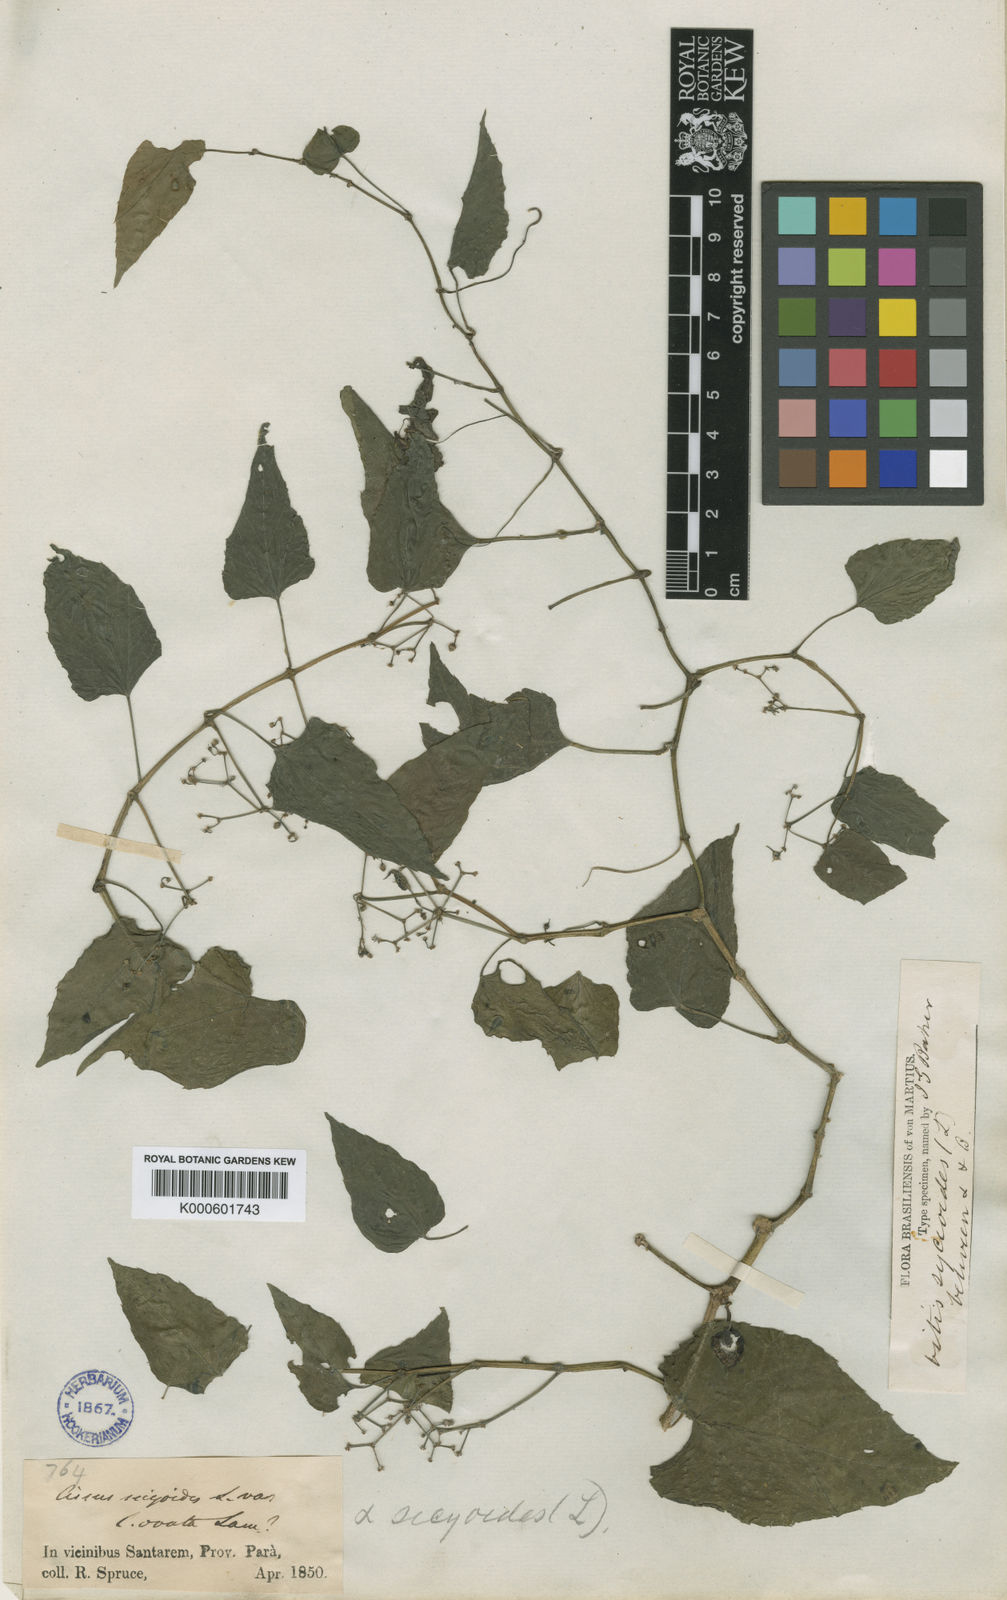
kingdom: Plantae
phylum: Tracheophyta
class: Magnoliopsida
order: Vitales
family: Vitaceae
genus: Cissus
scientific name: Cissus verticillata
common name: Princess vine
